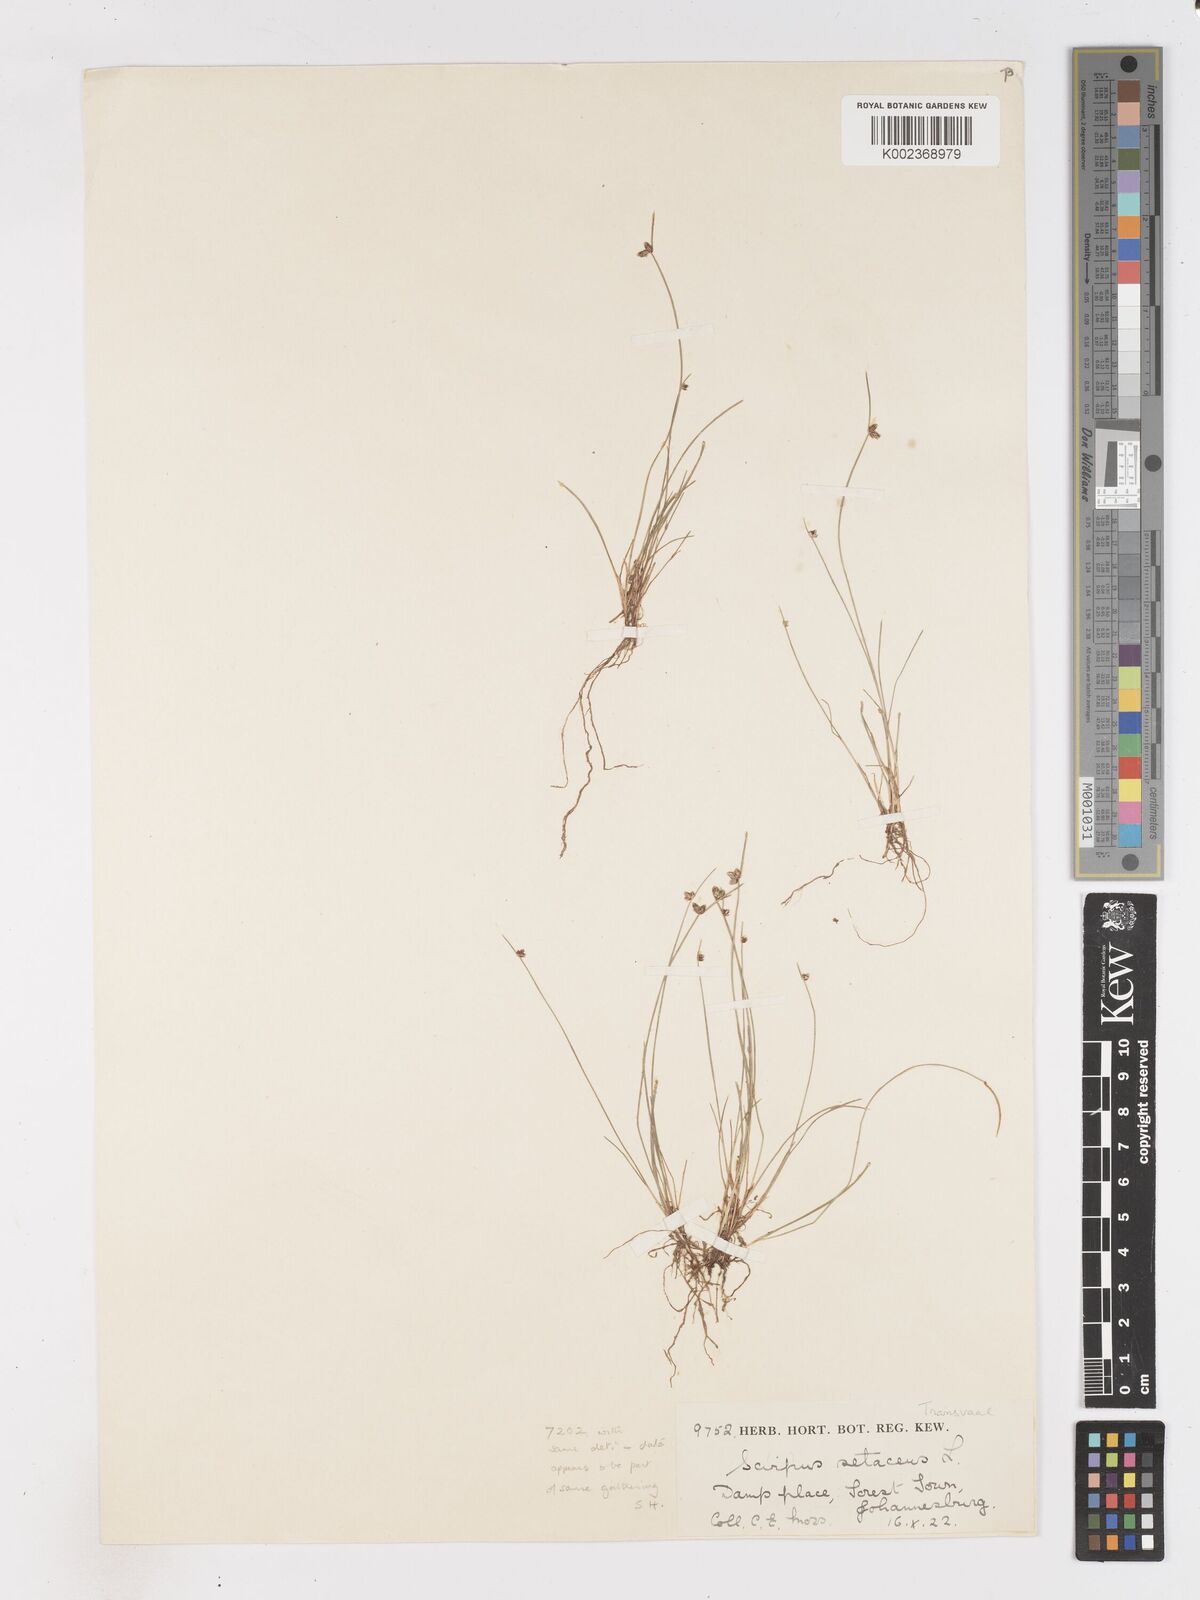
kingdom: Plantae
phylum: Tracheophyta
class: Liliopsida
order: Poales
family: Cyperaceae
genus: Isolepis
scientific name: Isolepis setacea
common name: Bristle club-rush
